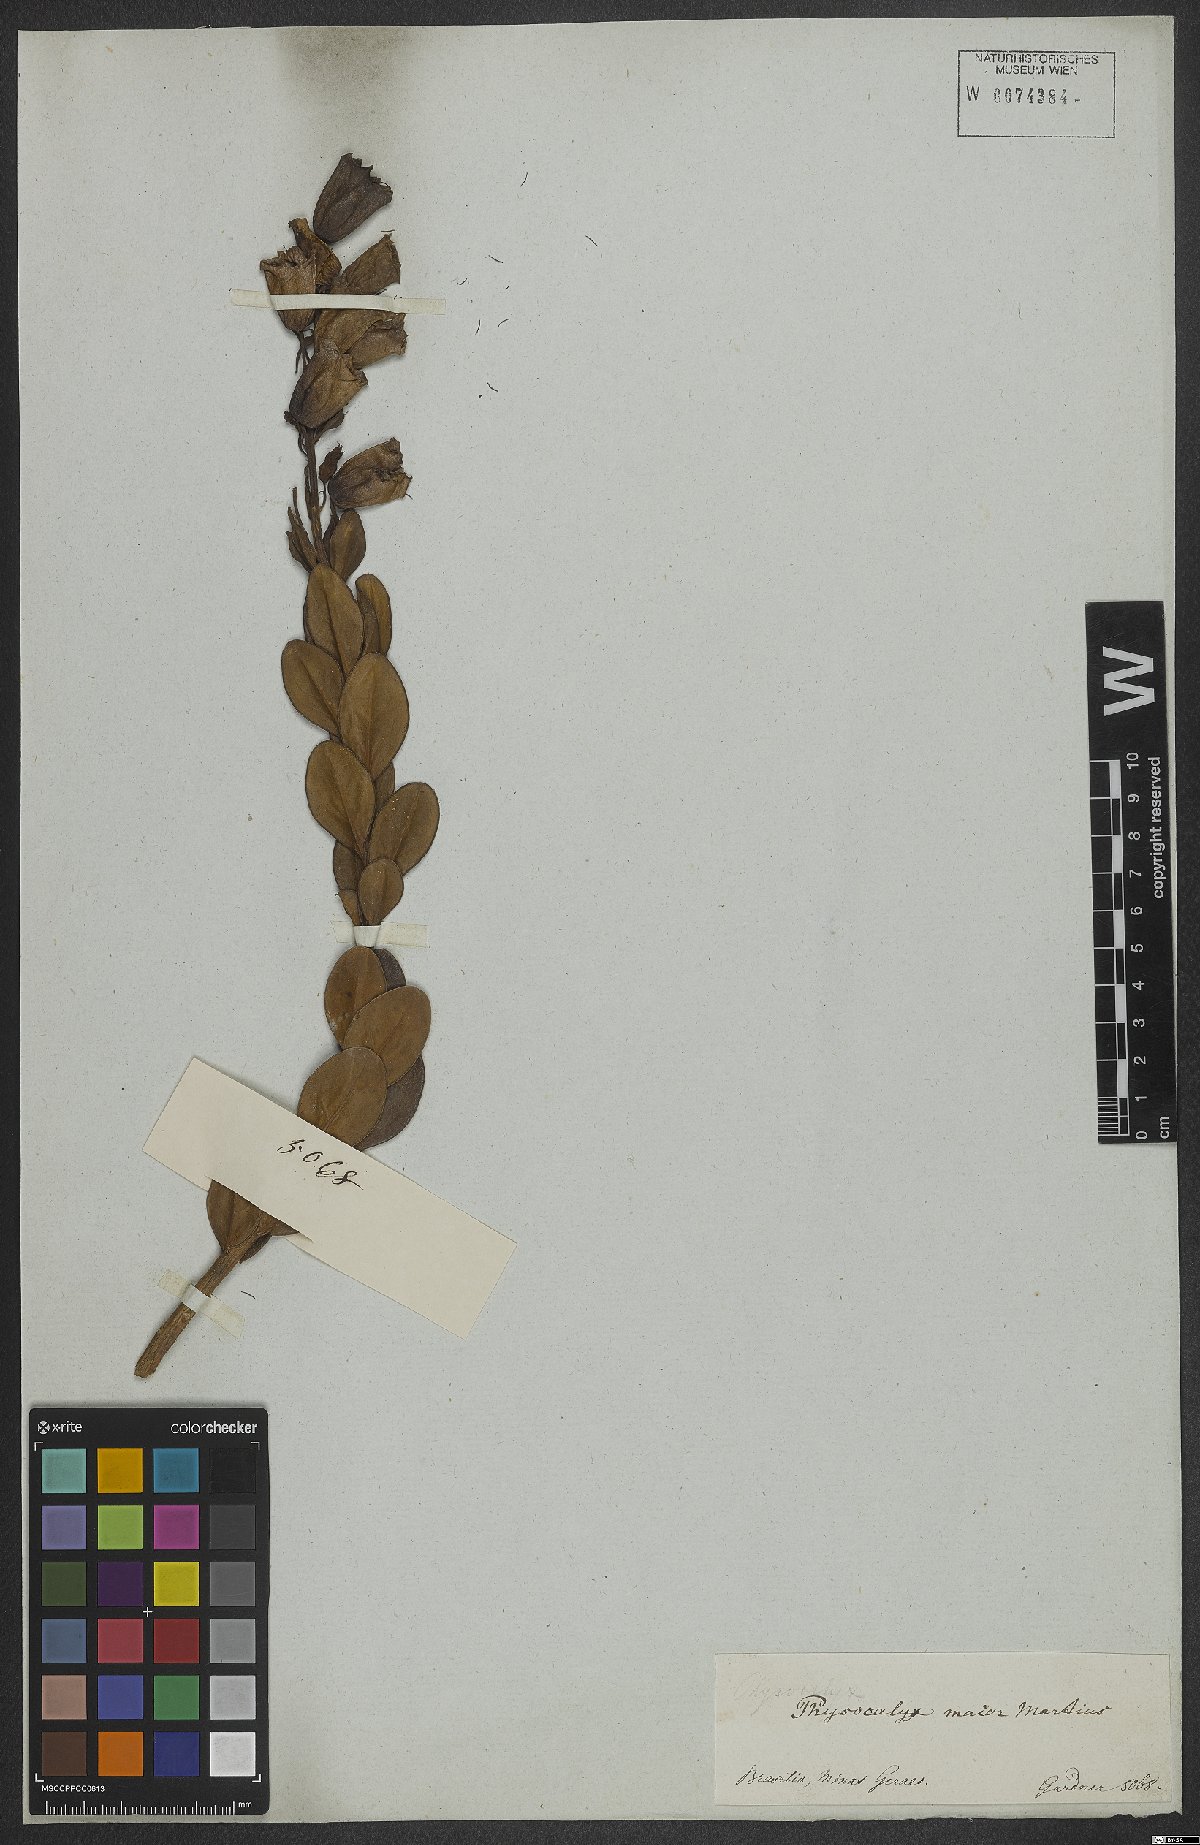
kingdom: Plantae
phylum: Tracheophyta
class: Magnoliopsida
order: Lamiales
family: Orobanchaceae
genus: Physocalyx
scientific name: Physocalyx major
